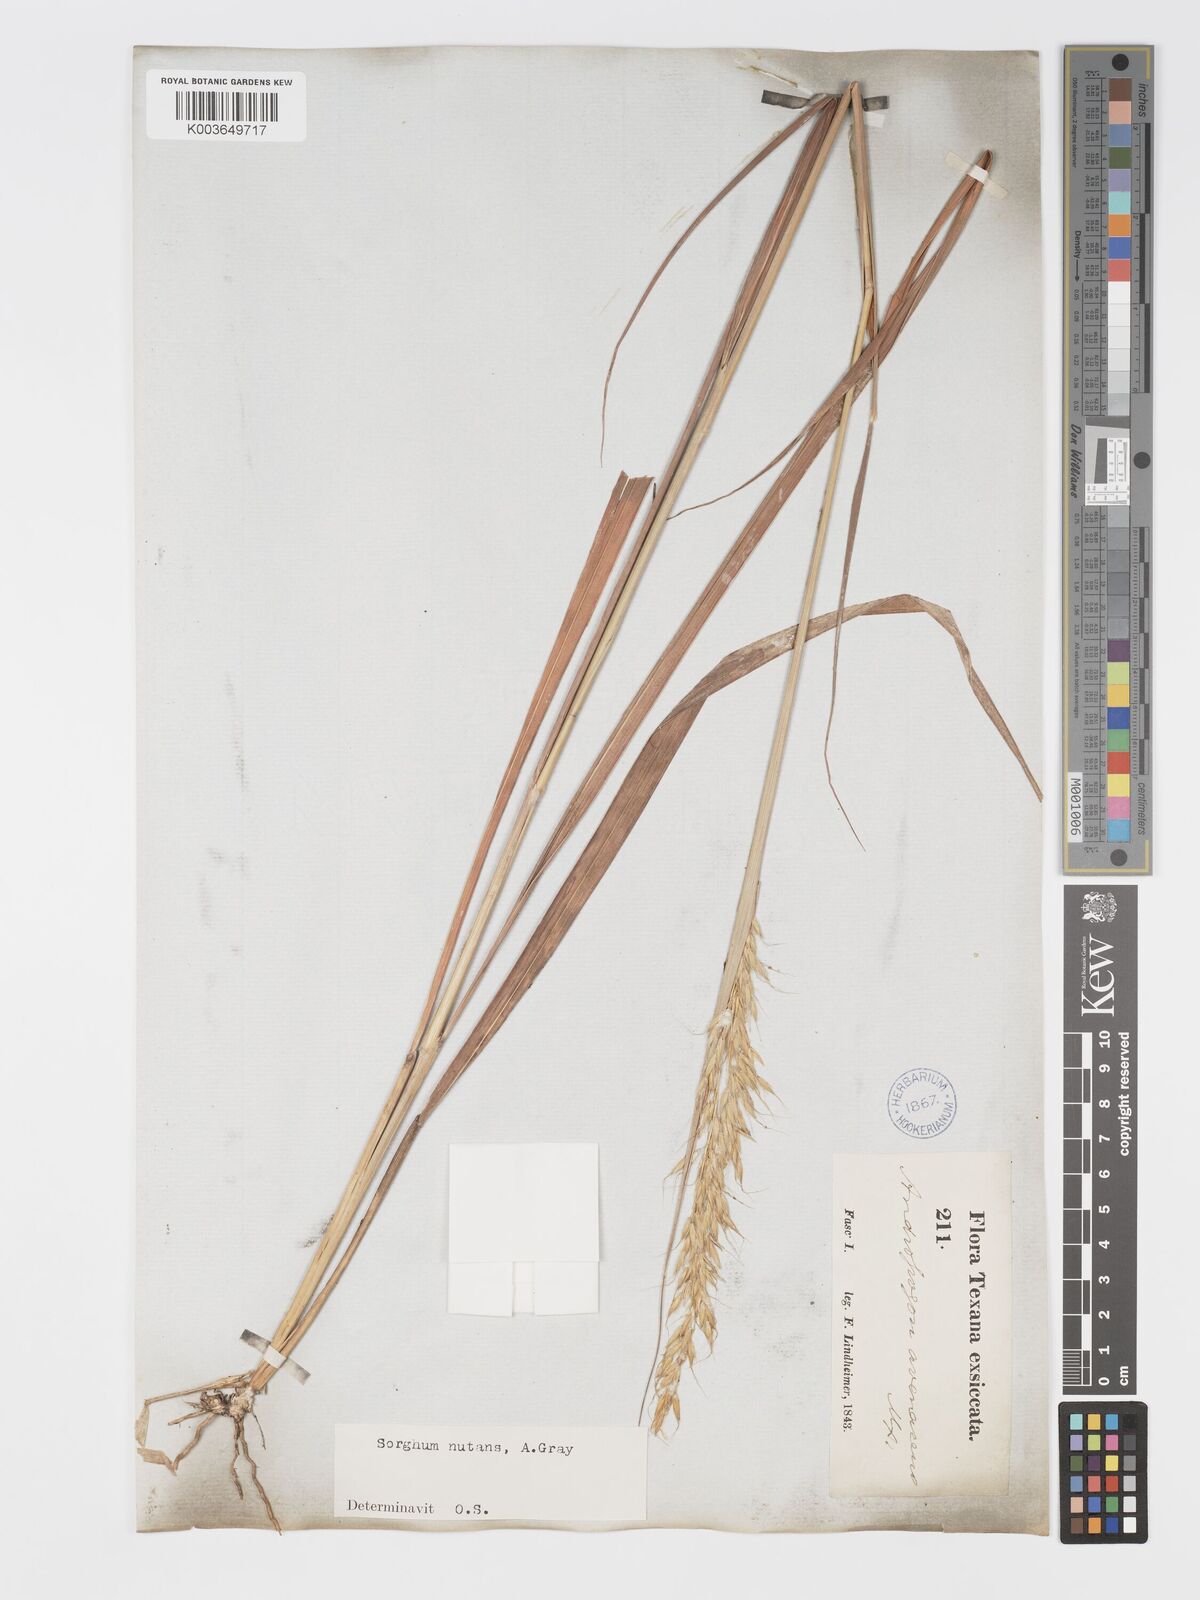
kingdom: Plantae
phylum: Tracheophyta
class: Liliopsida
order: Poales
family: Poaceae
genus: Sorghastrum
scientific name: Sorghastrum nutans
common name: Indian grass
